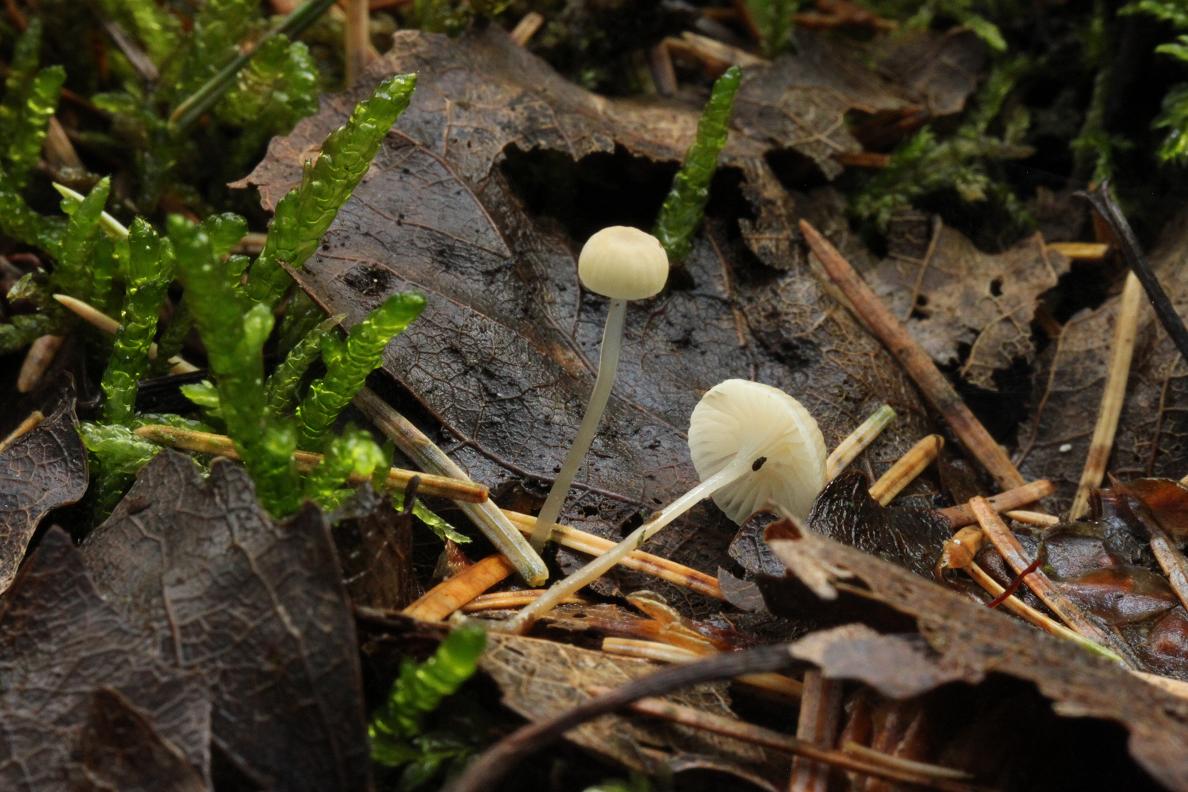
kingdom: Fungi
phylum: Basidiomycota
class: Agaricomycetes
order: Agaricales
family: Mycenaceae
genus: Roridomyces
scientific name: Roridomyces roridus
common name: slimfod
